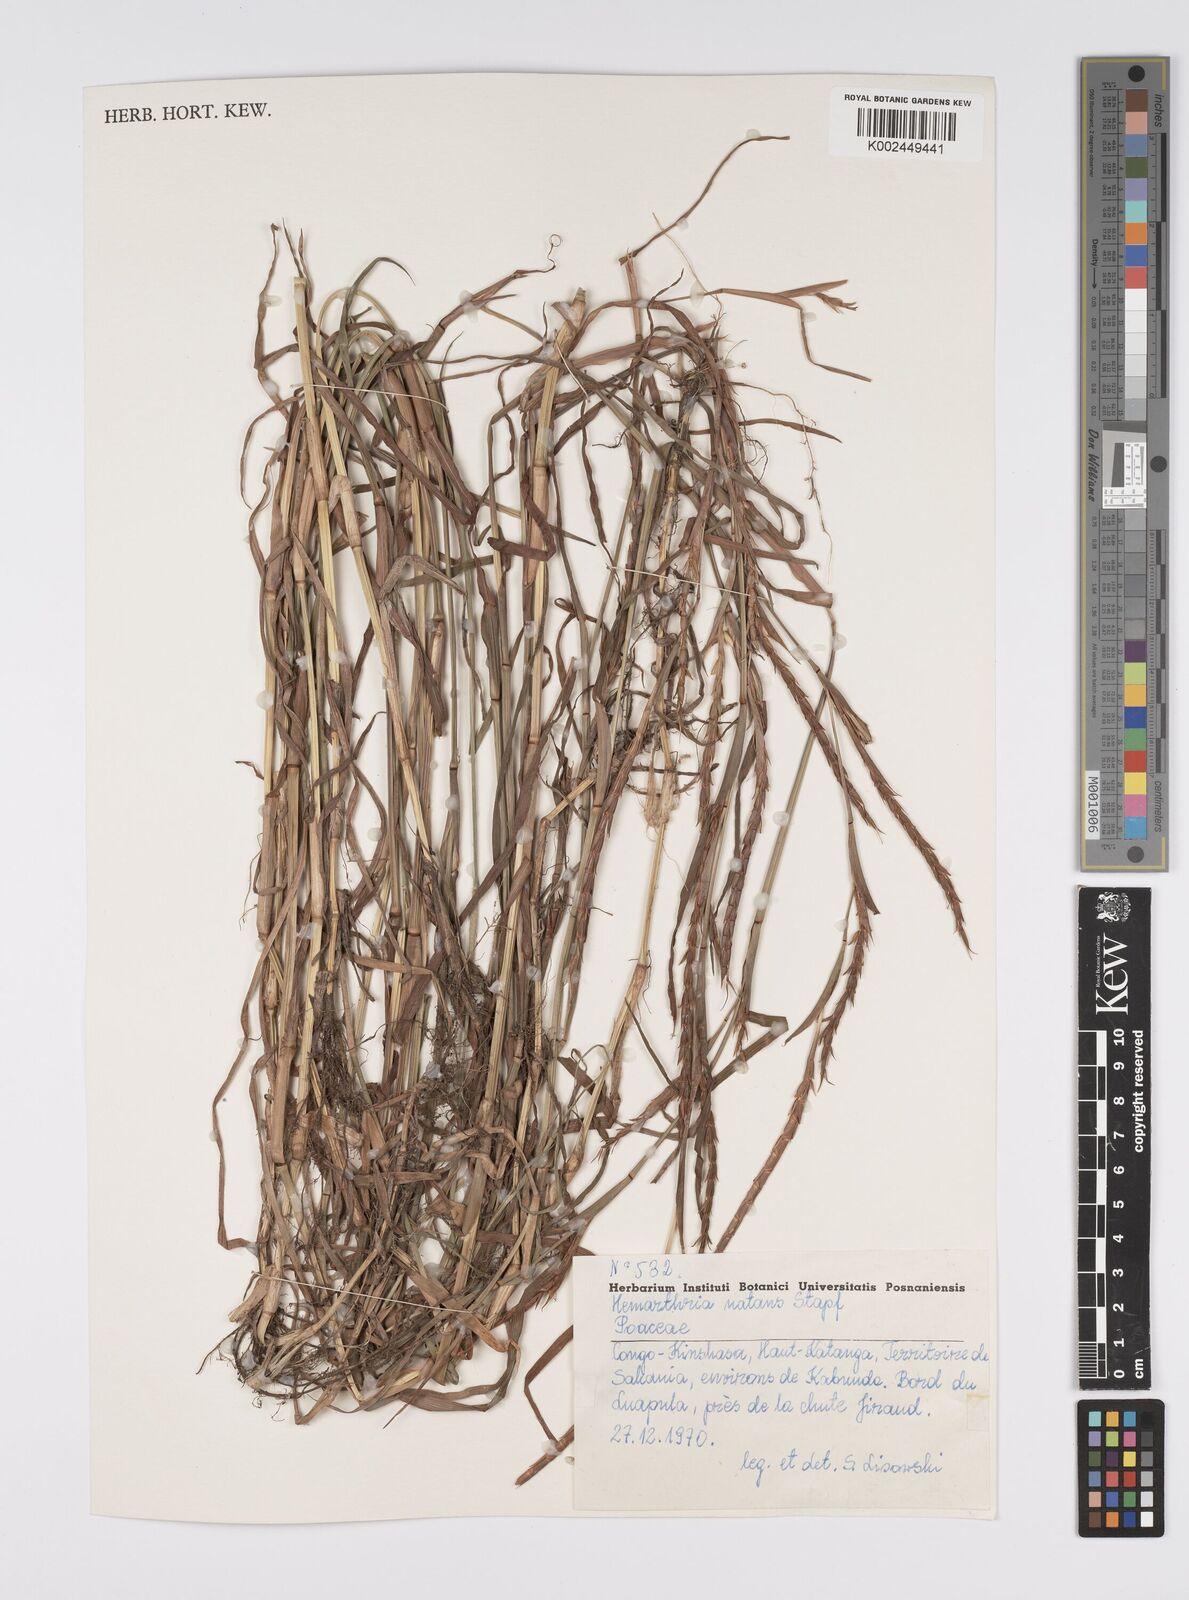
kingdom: Plantae
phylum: Tracheophyta
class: Liliopsida
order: Poales
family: Poaceae
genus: Hemarthria
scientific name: Hemarthria natans
